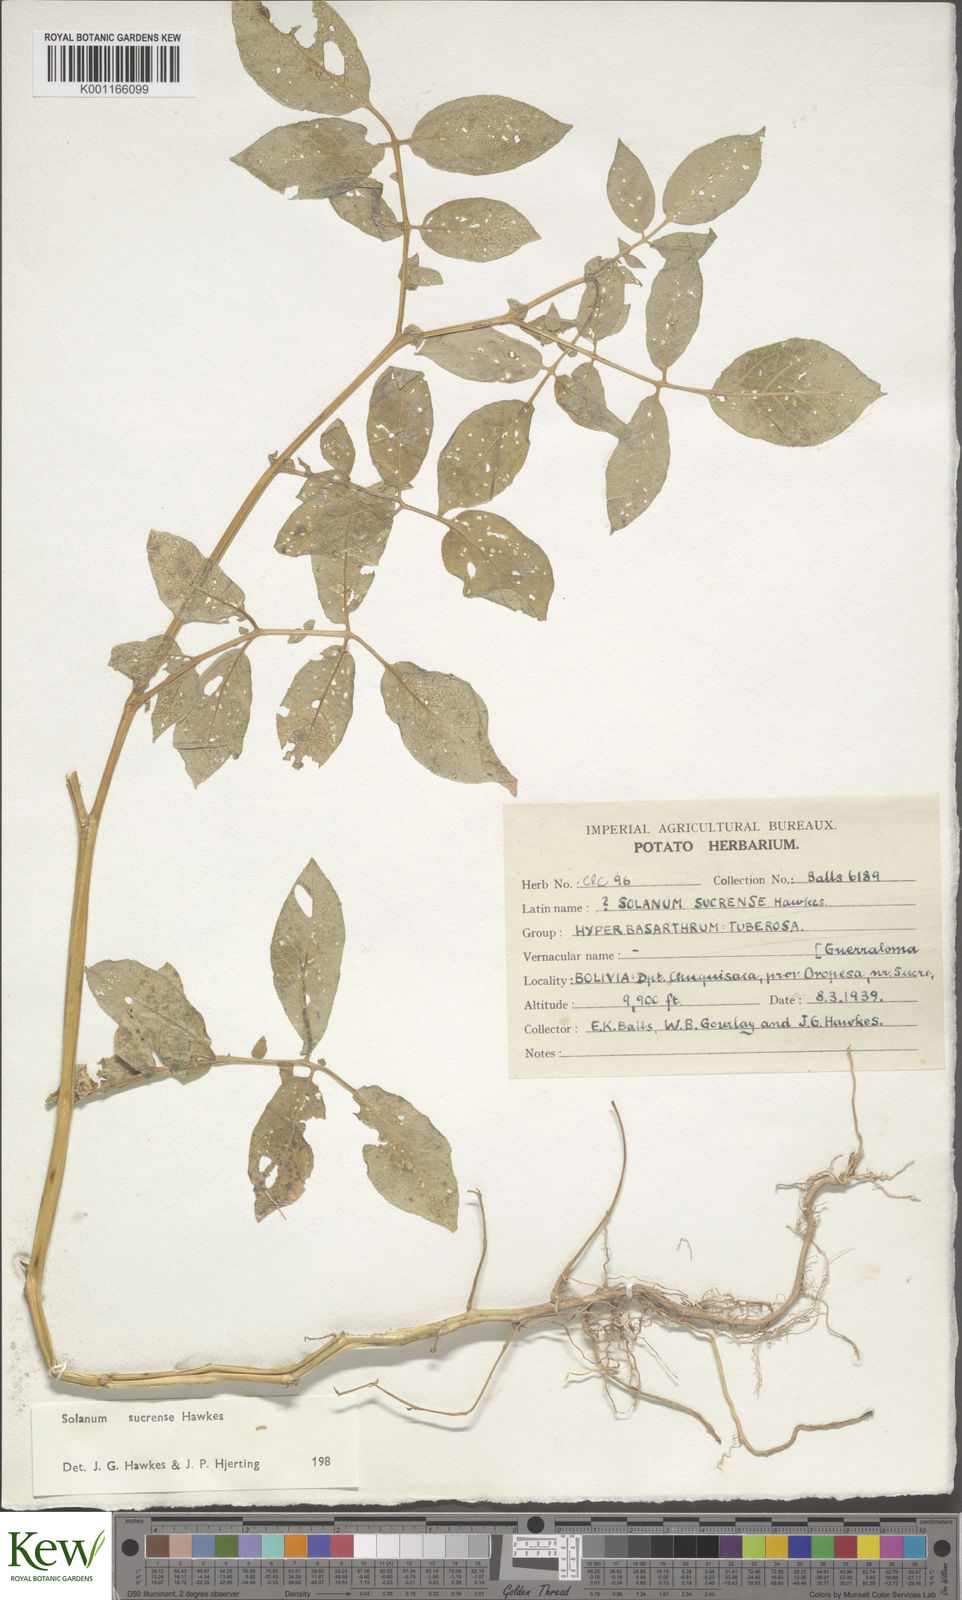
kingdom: Plantae
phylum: Tracheophyta
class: Magnoliopsida
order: Solanales
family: Solanaceae
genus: Solanum
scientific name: Solanum brevicaule
